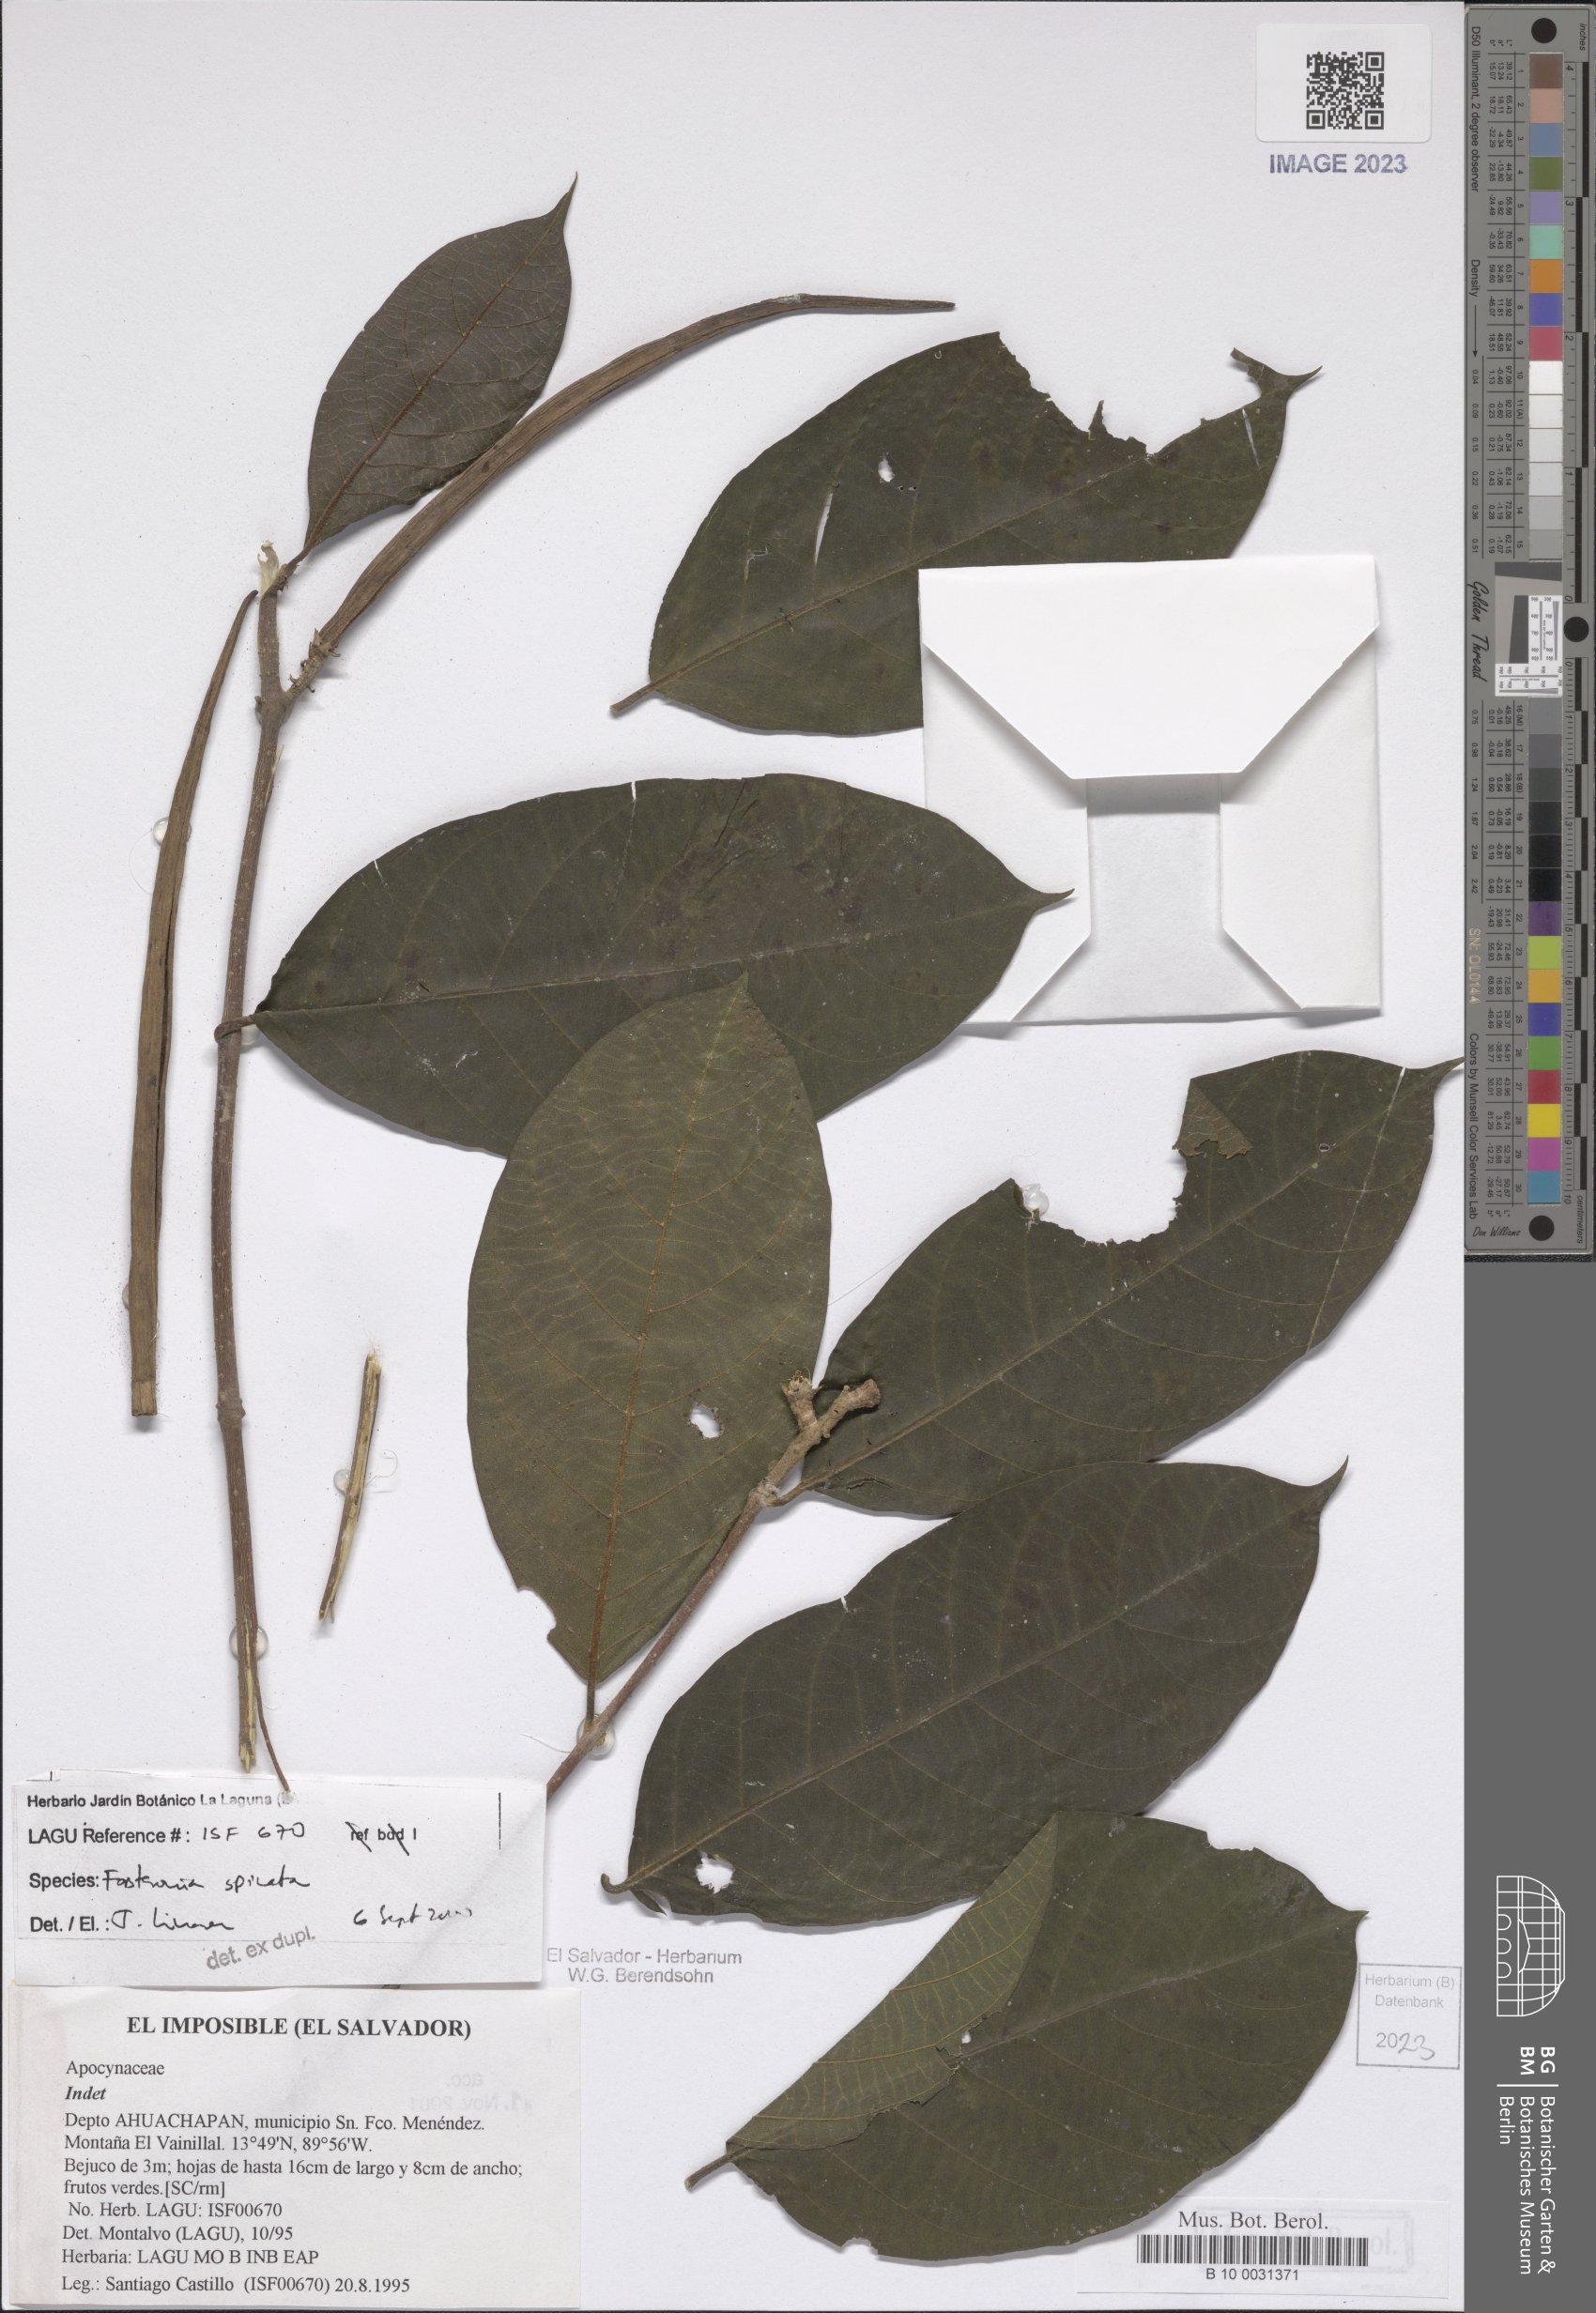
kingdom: Plantae
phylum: Tracheophyta
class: Magnoliopsida
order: Gentianales
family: Apocynaceae
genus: Forsteronia
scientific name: Forsteronia spicata
